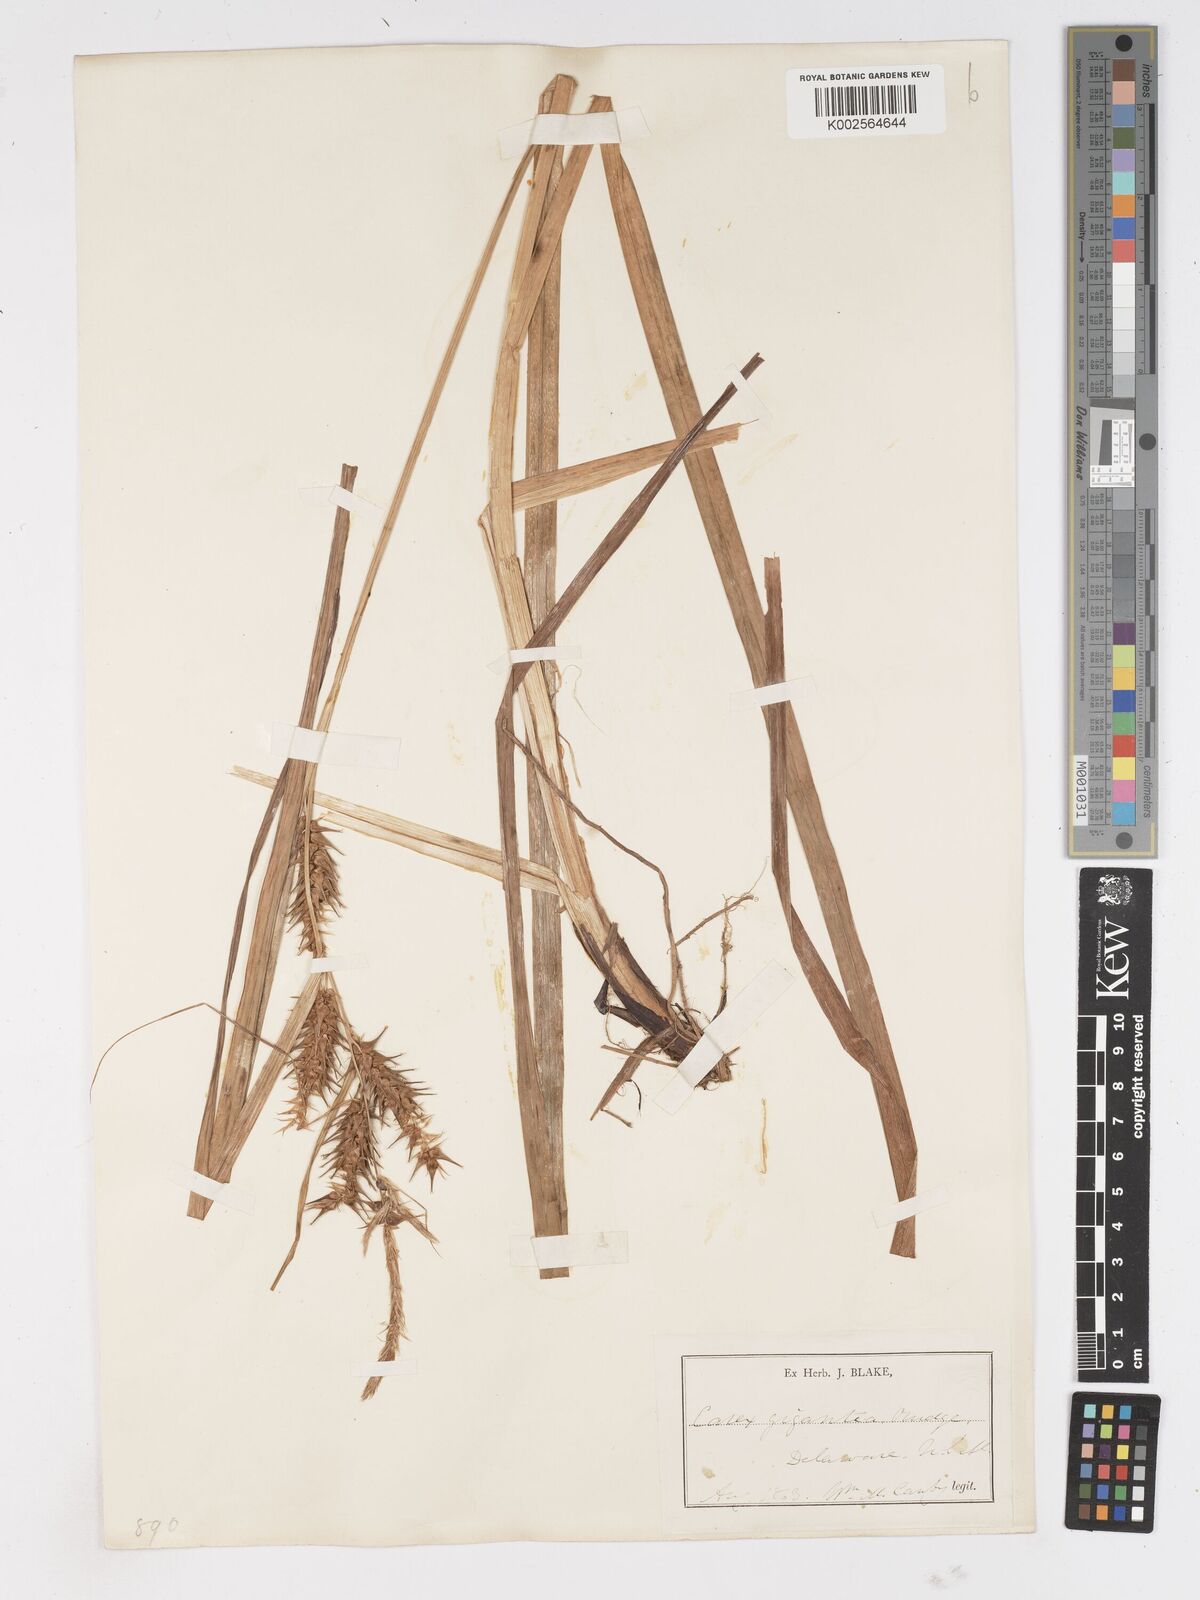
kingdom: Plantae
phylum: Tracheophyta
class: Liliopsida
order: Poales
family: Cyperaceae
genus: Carex
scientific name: Carex gigantea
